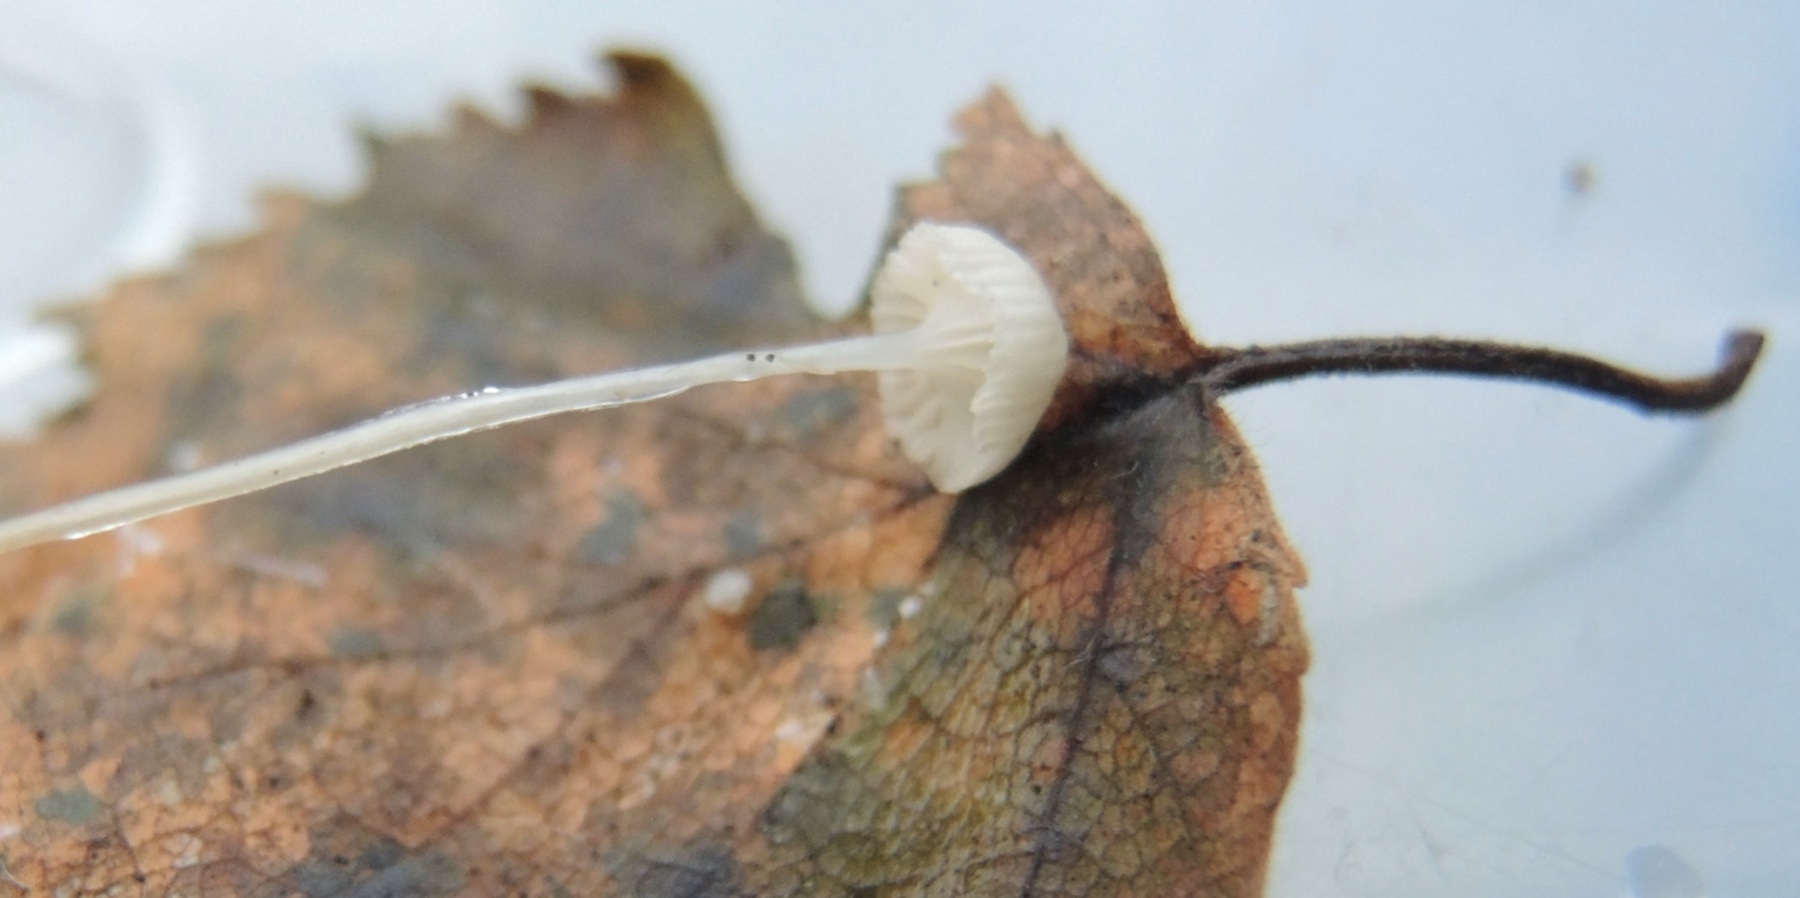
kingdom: Fungi
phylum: Basidiomycota
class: Agaricomycetes
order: Agaricales
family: Mycenaceae
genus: Roridomyces
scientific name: Roridomyces roridus
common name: slimfod
